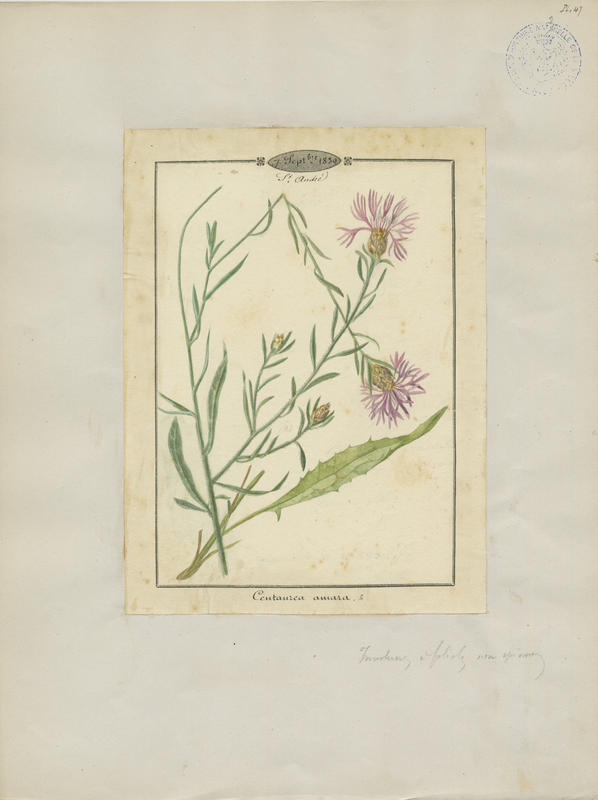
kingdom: Plantae
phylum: Tracheophyta
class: Magnoliopsida
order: Asterales
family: Asteraceae
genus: Centaurea
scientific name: Centaurea jacea
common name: Brown knapweed
